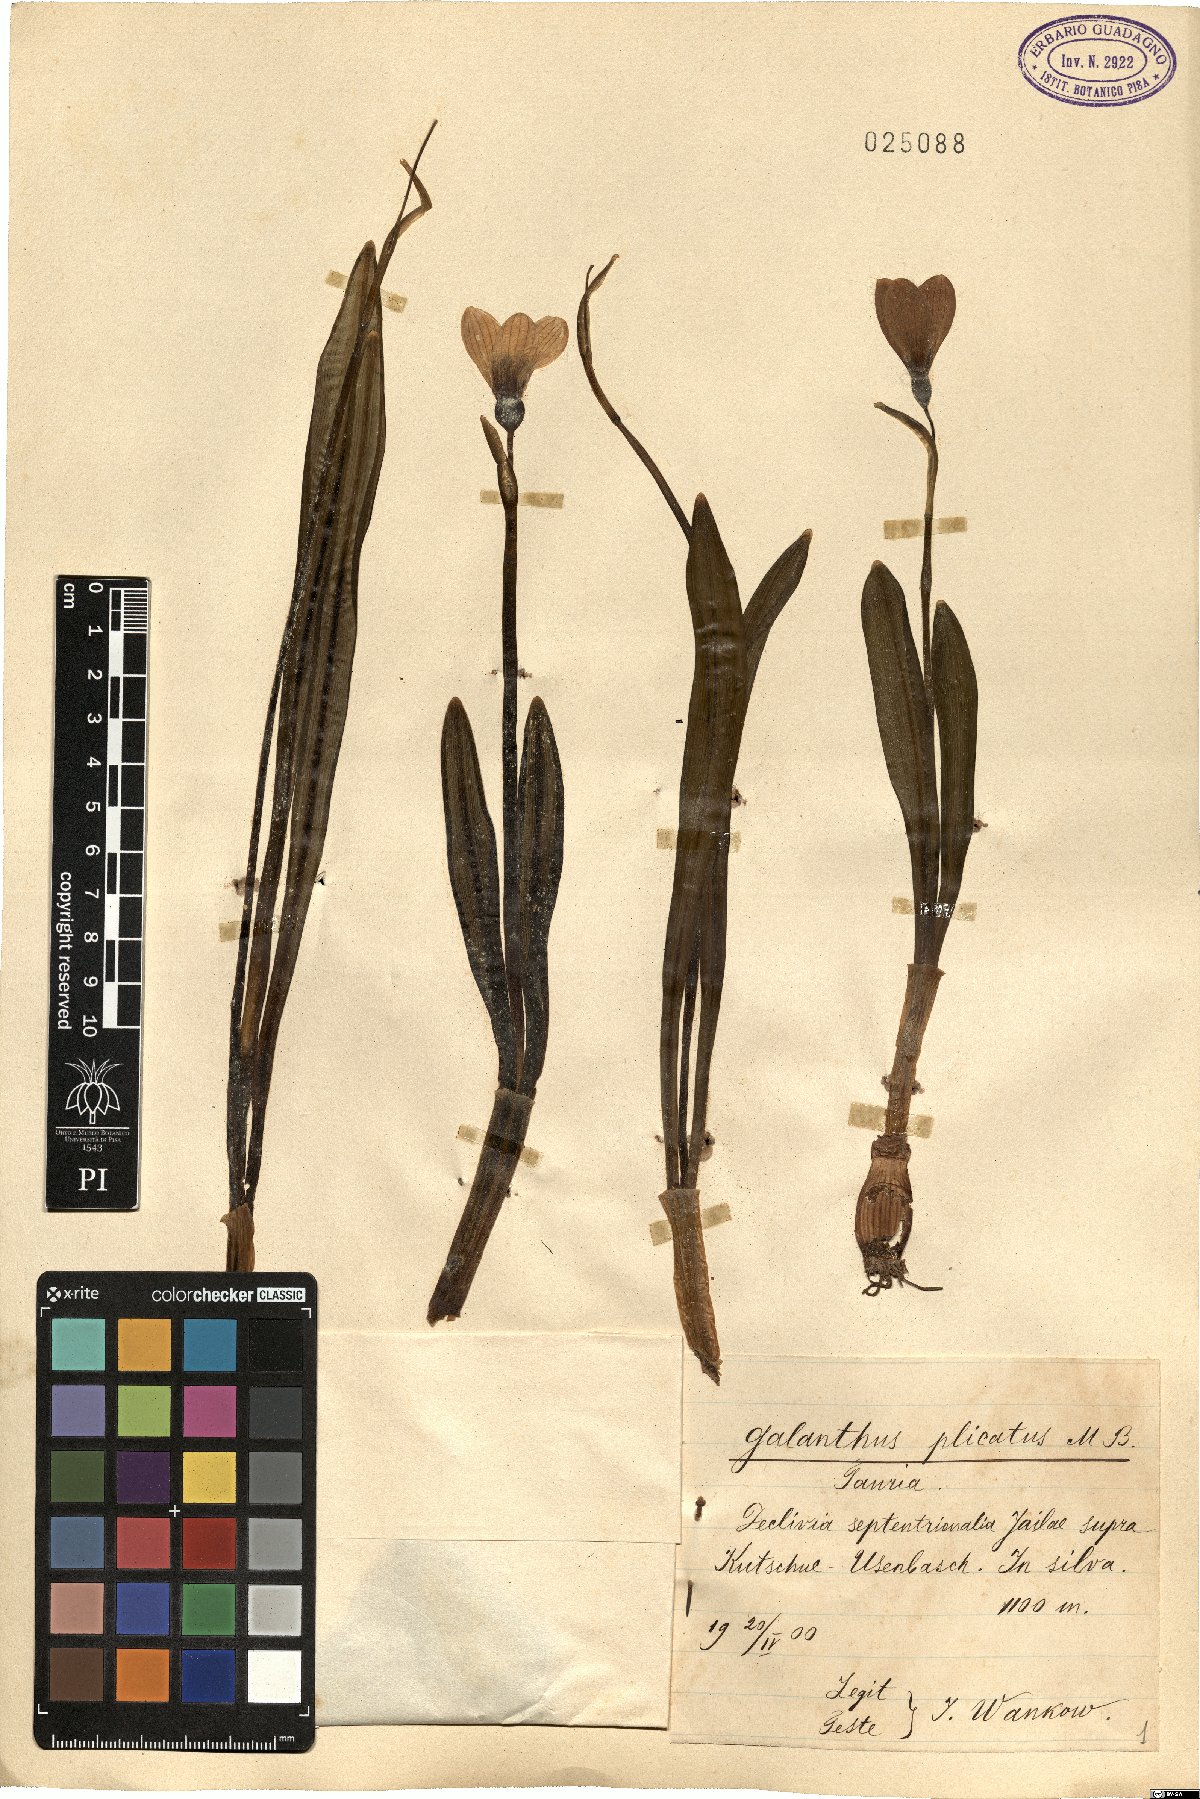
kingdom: Plantae
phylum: Tracheophyta
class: Liliopsida
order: Asparagales
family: Amaryllidaceae
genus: Galanthus
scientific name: Galanthus plicatus
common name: Pleated snowdrop
